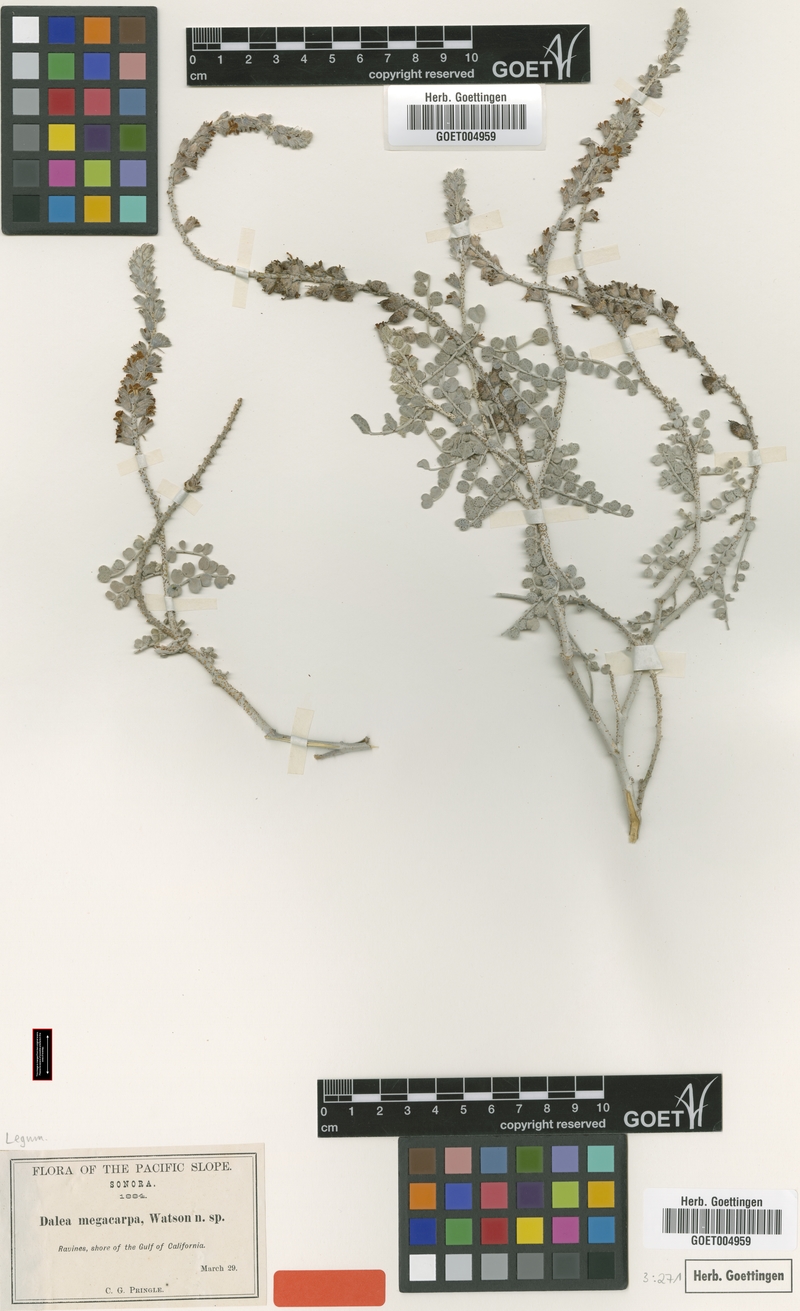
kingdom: Plantae
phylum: Tracheophyta
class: Magnoliopsida
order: Fabales
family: Fabaceae
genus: Errazurizia
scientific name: Errazurizia megacarpa
